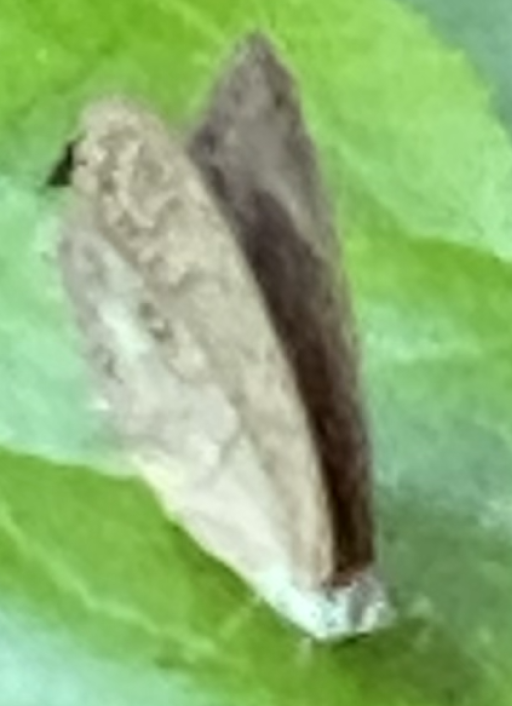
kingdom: Animalia
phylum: Arthropoda
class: Insecta
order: Lepidoptera
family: Nymphalidae
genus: Lethe
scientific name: Lethe eurydice
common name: Appalachian Eyed Brown
